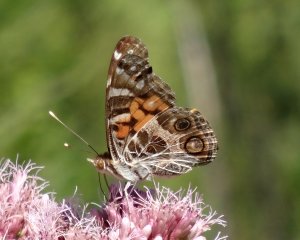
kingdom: Animalia
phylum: Arthropoda
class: Insecta
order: Lepidoptera
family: Nymphalidae
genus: Vanessa
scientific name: Vanessa virginiensis
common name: American Lady
